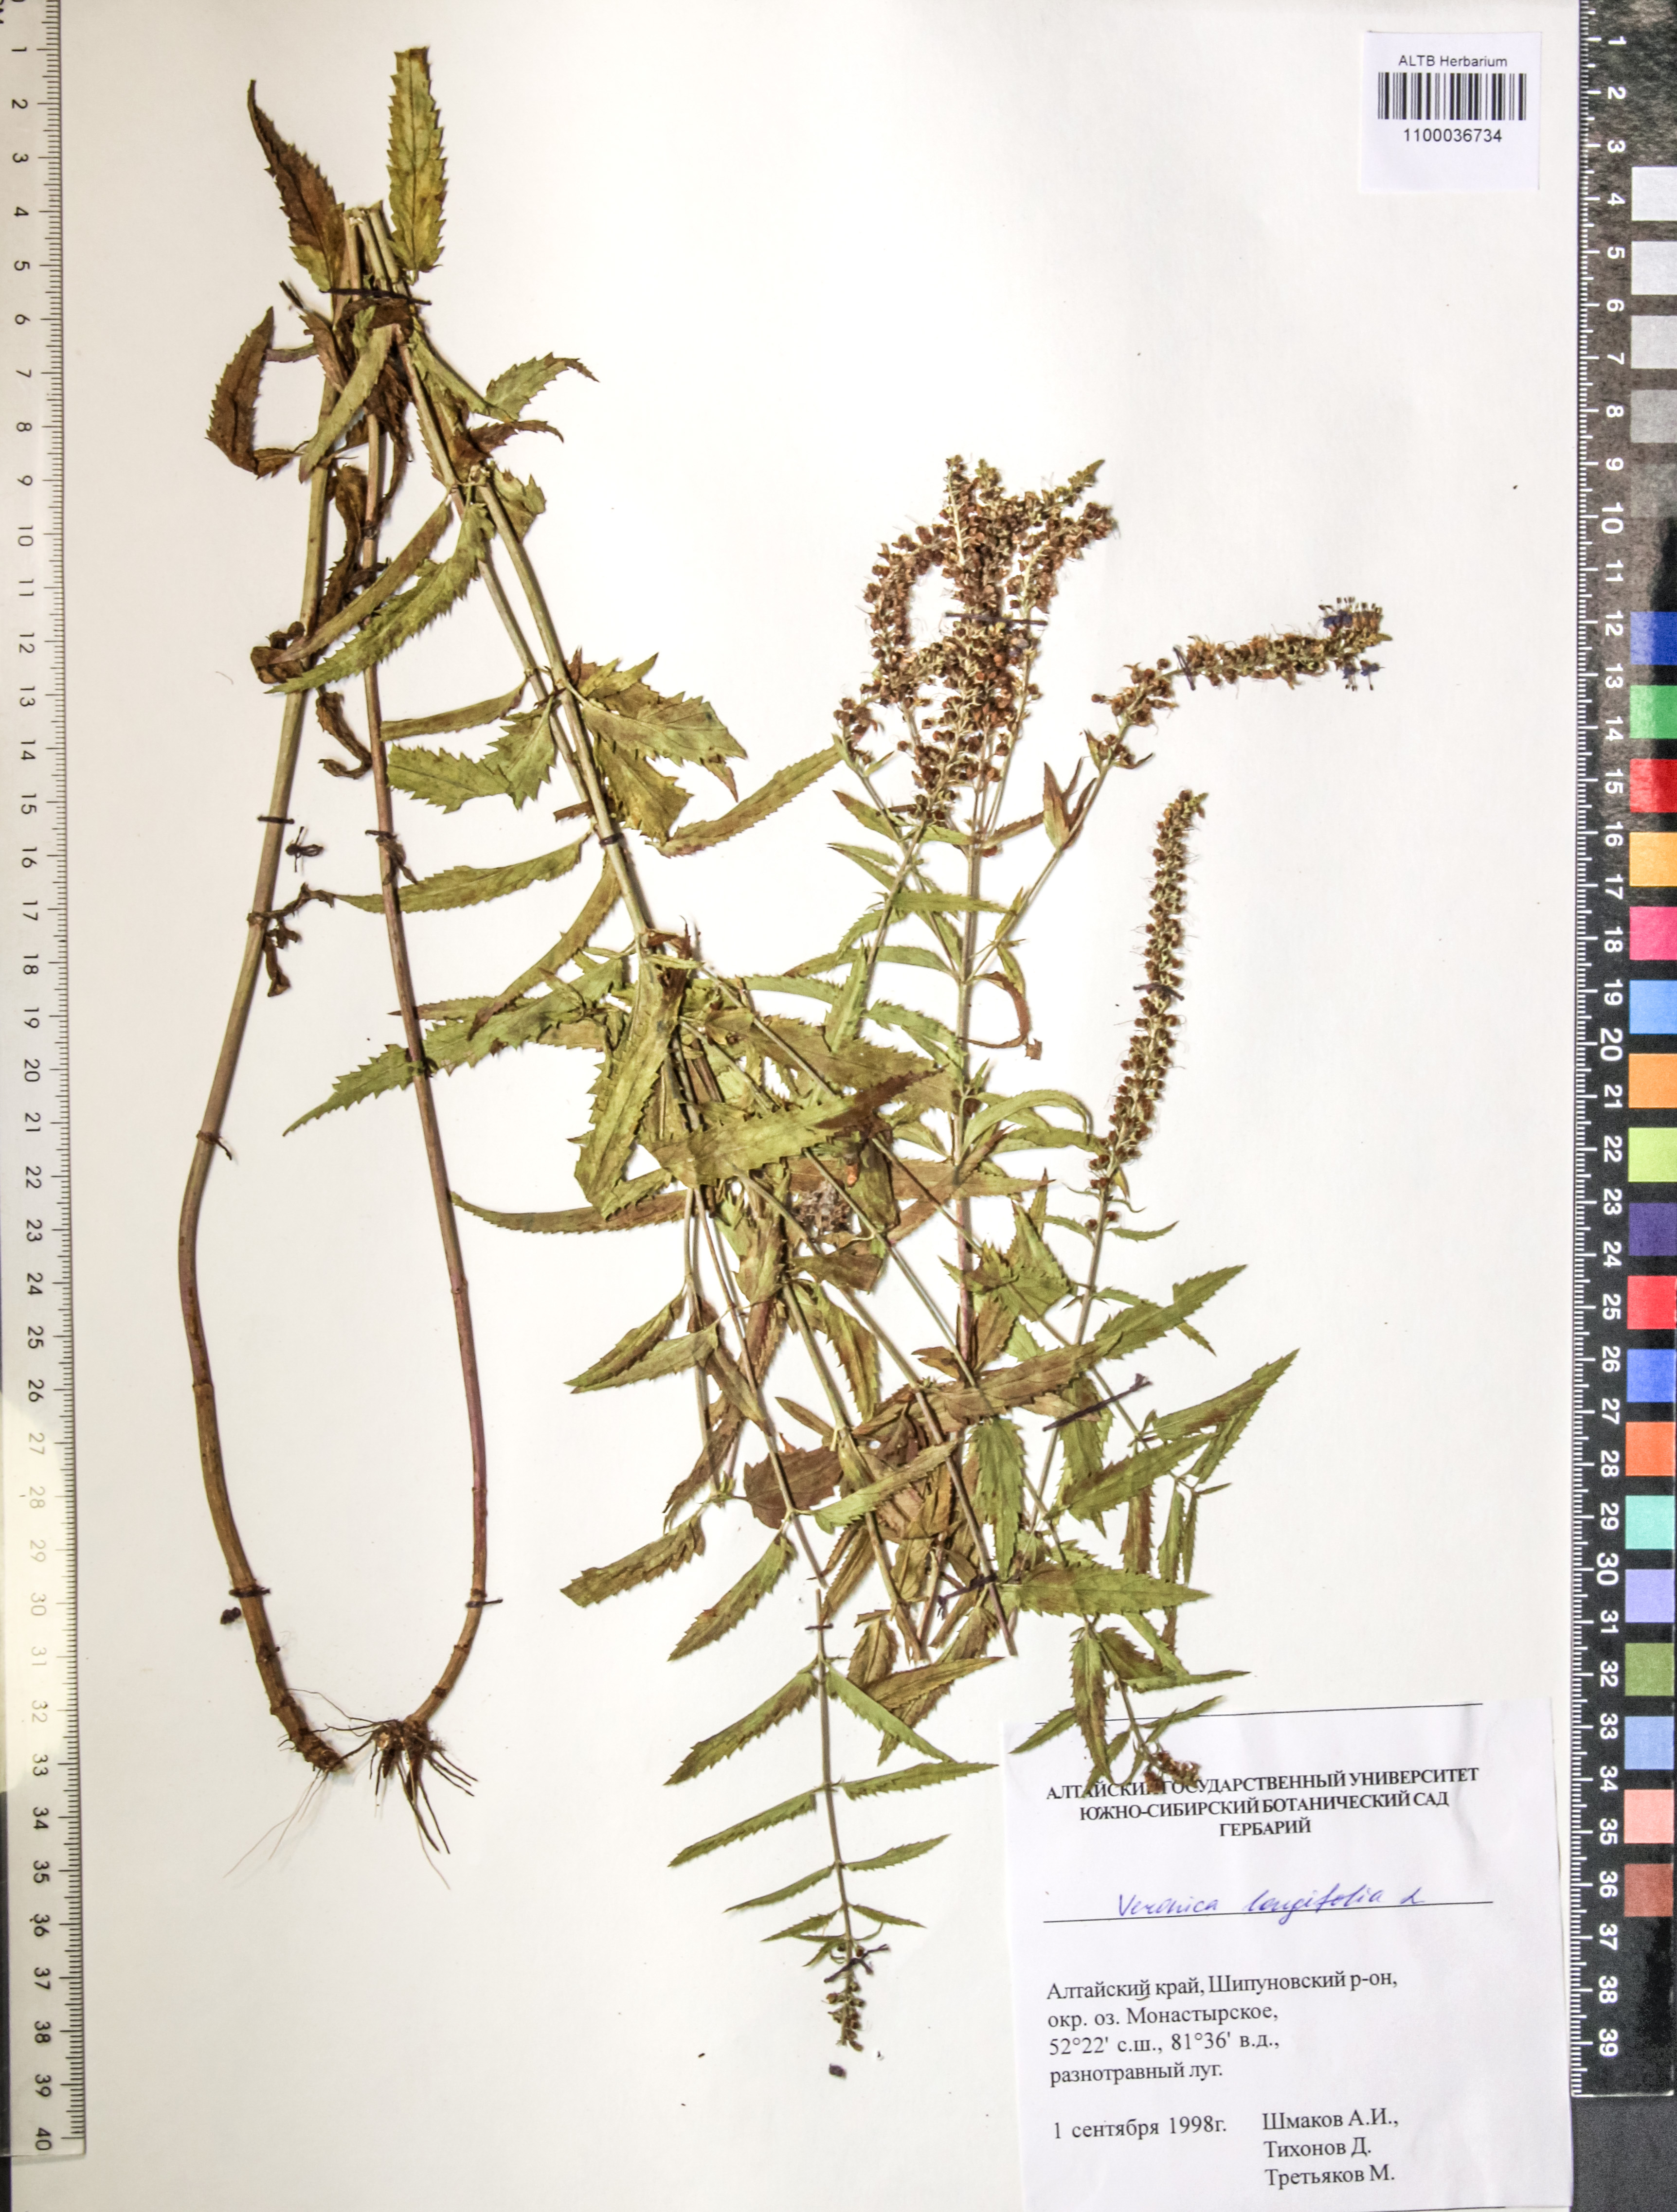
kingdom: Plantae
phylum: Tracheophyta
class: Magnoliopsida
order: Lamiales
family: Plantaginaceae
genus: Veronica
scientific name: Veronica longifolia
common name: Garden speedwell
